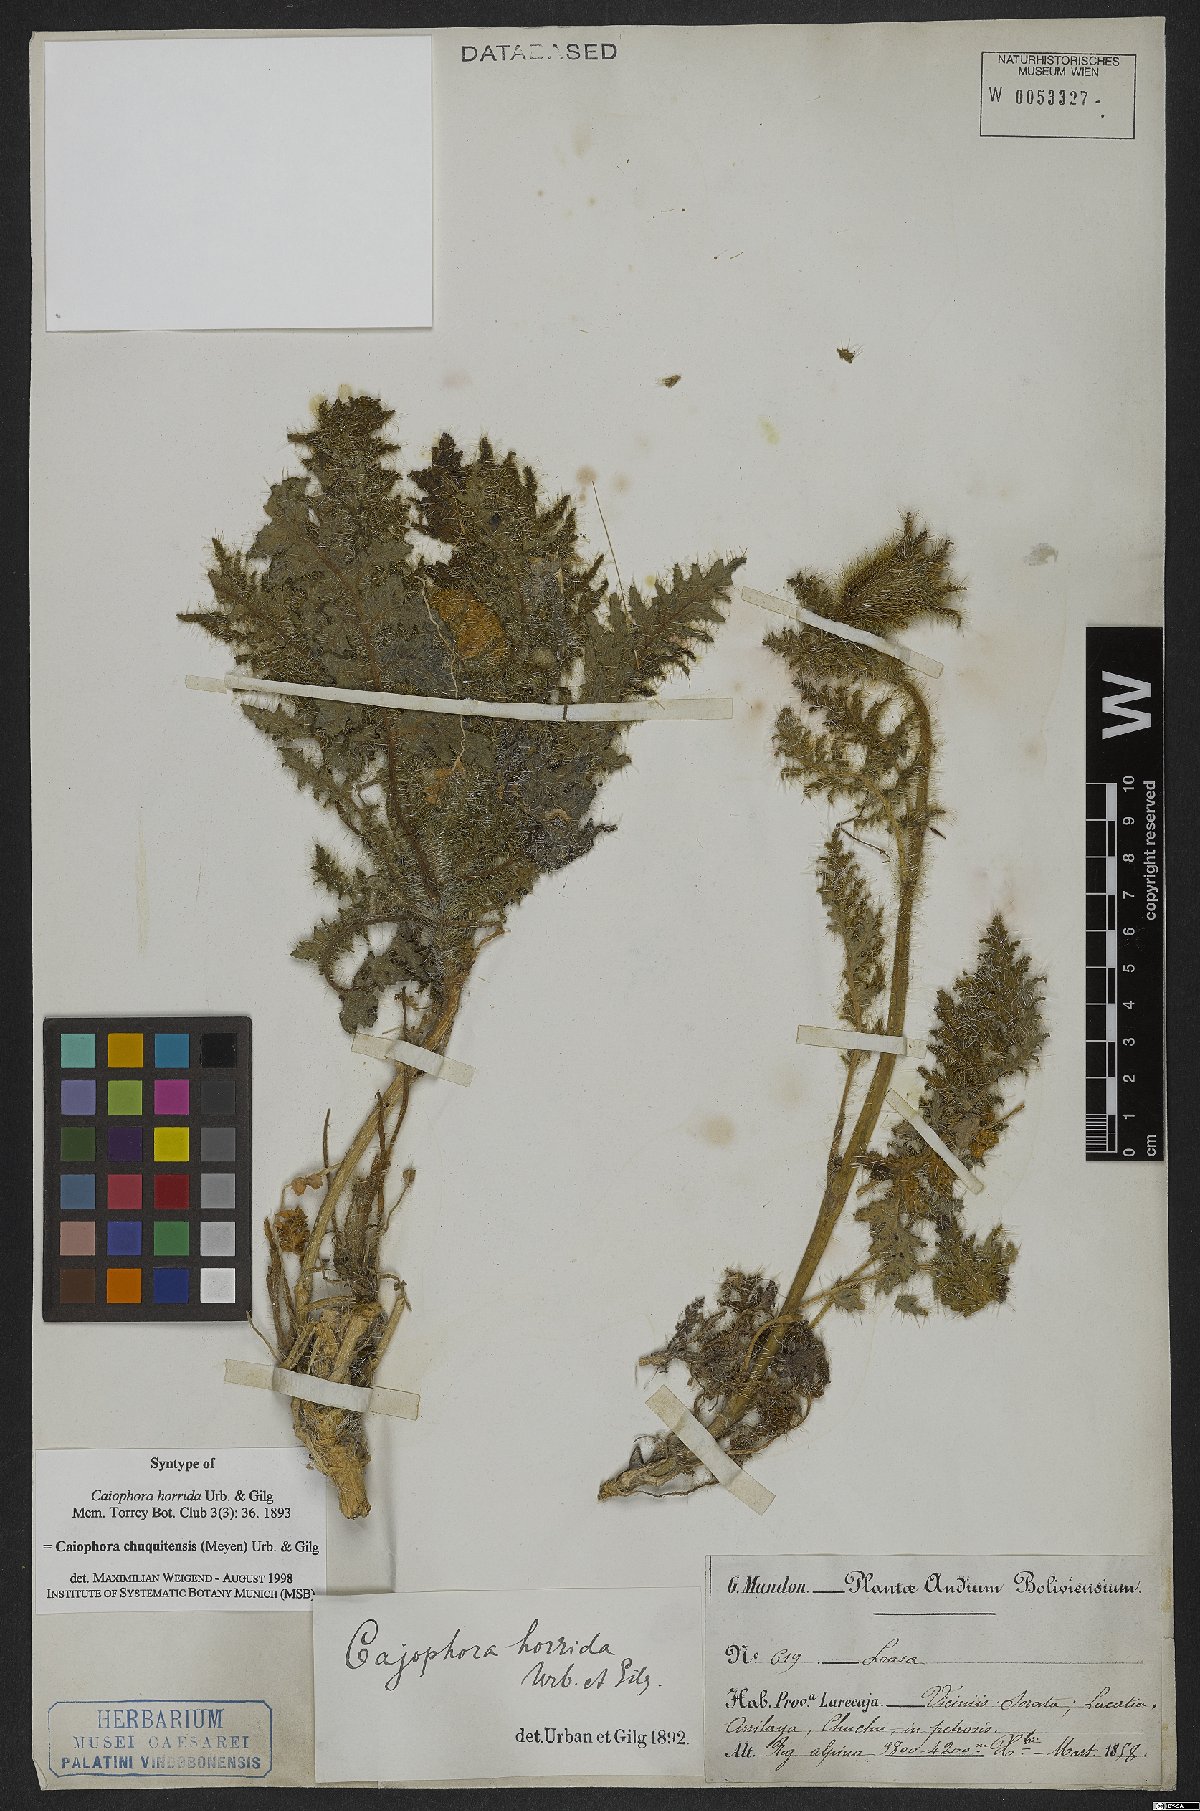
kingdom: Plantae
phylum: Tracheophyta
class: Magnoliopsida
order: Cornales
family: Loasaceae
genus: Caiophora
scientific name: Caiophora chuquitensis
